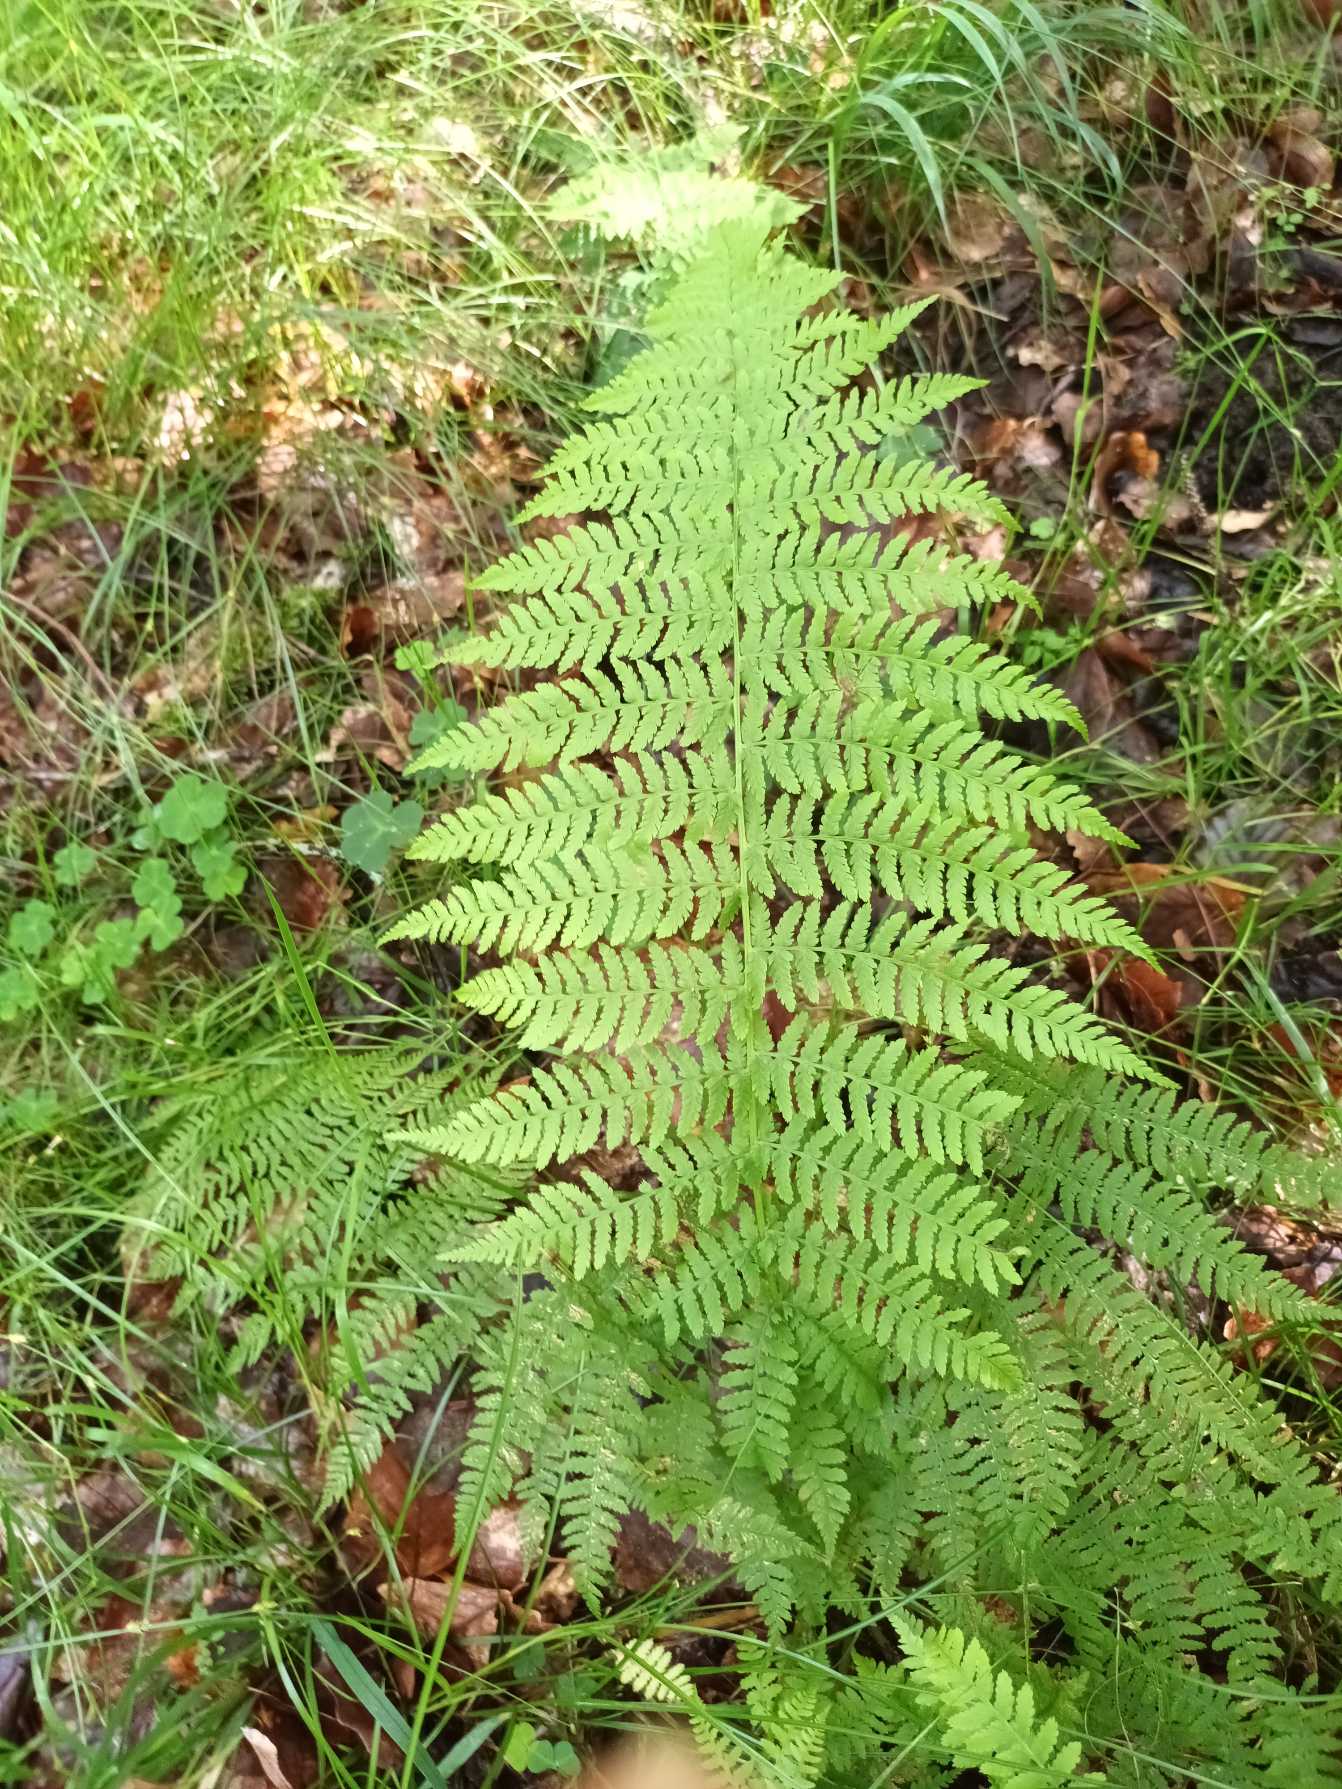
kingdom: Plantae
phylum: Tracheophyta
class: Polypodiopsida
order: Polypodiales
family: Athyriaceae
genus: Athyrium
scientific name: Athyrium filix-femina
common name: Fjerbregne
